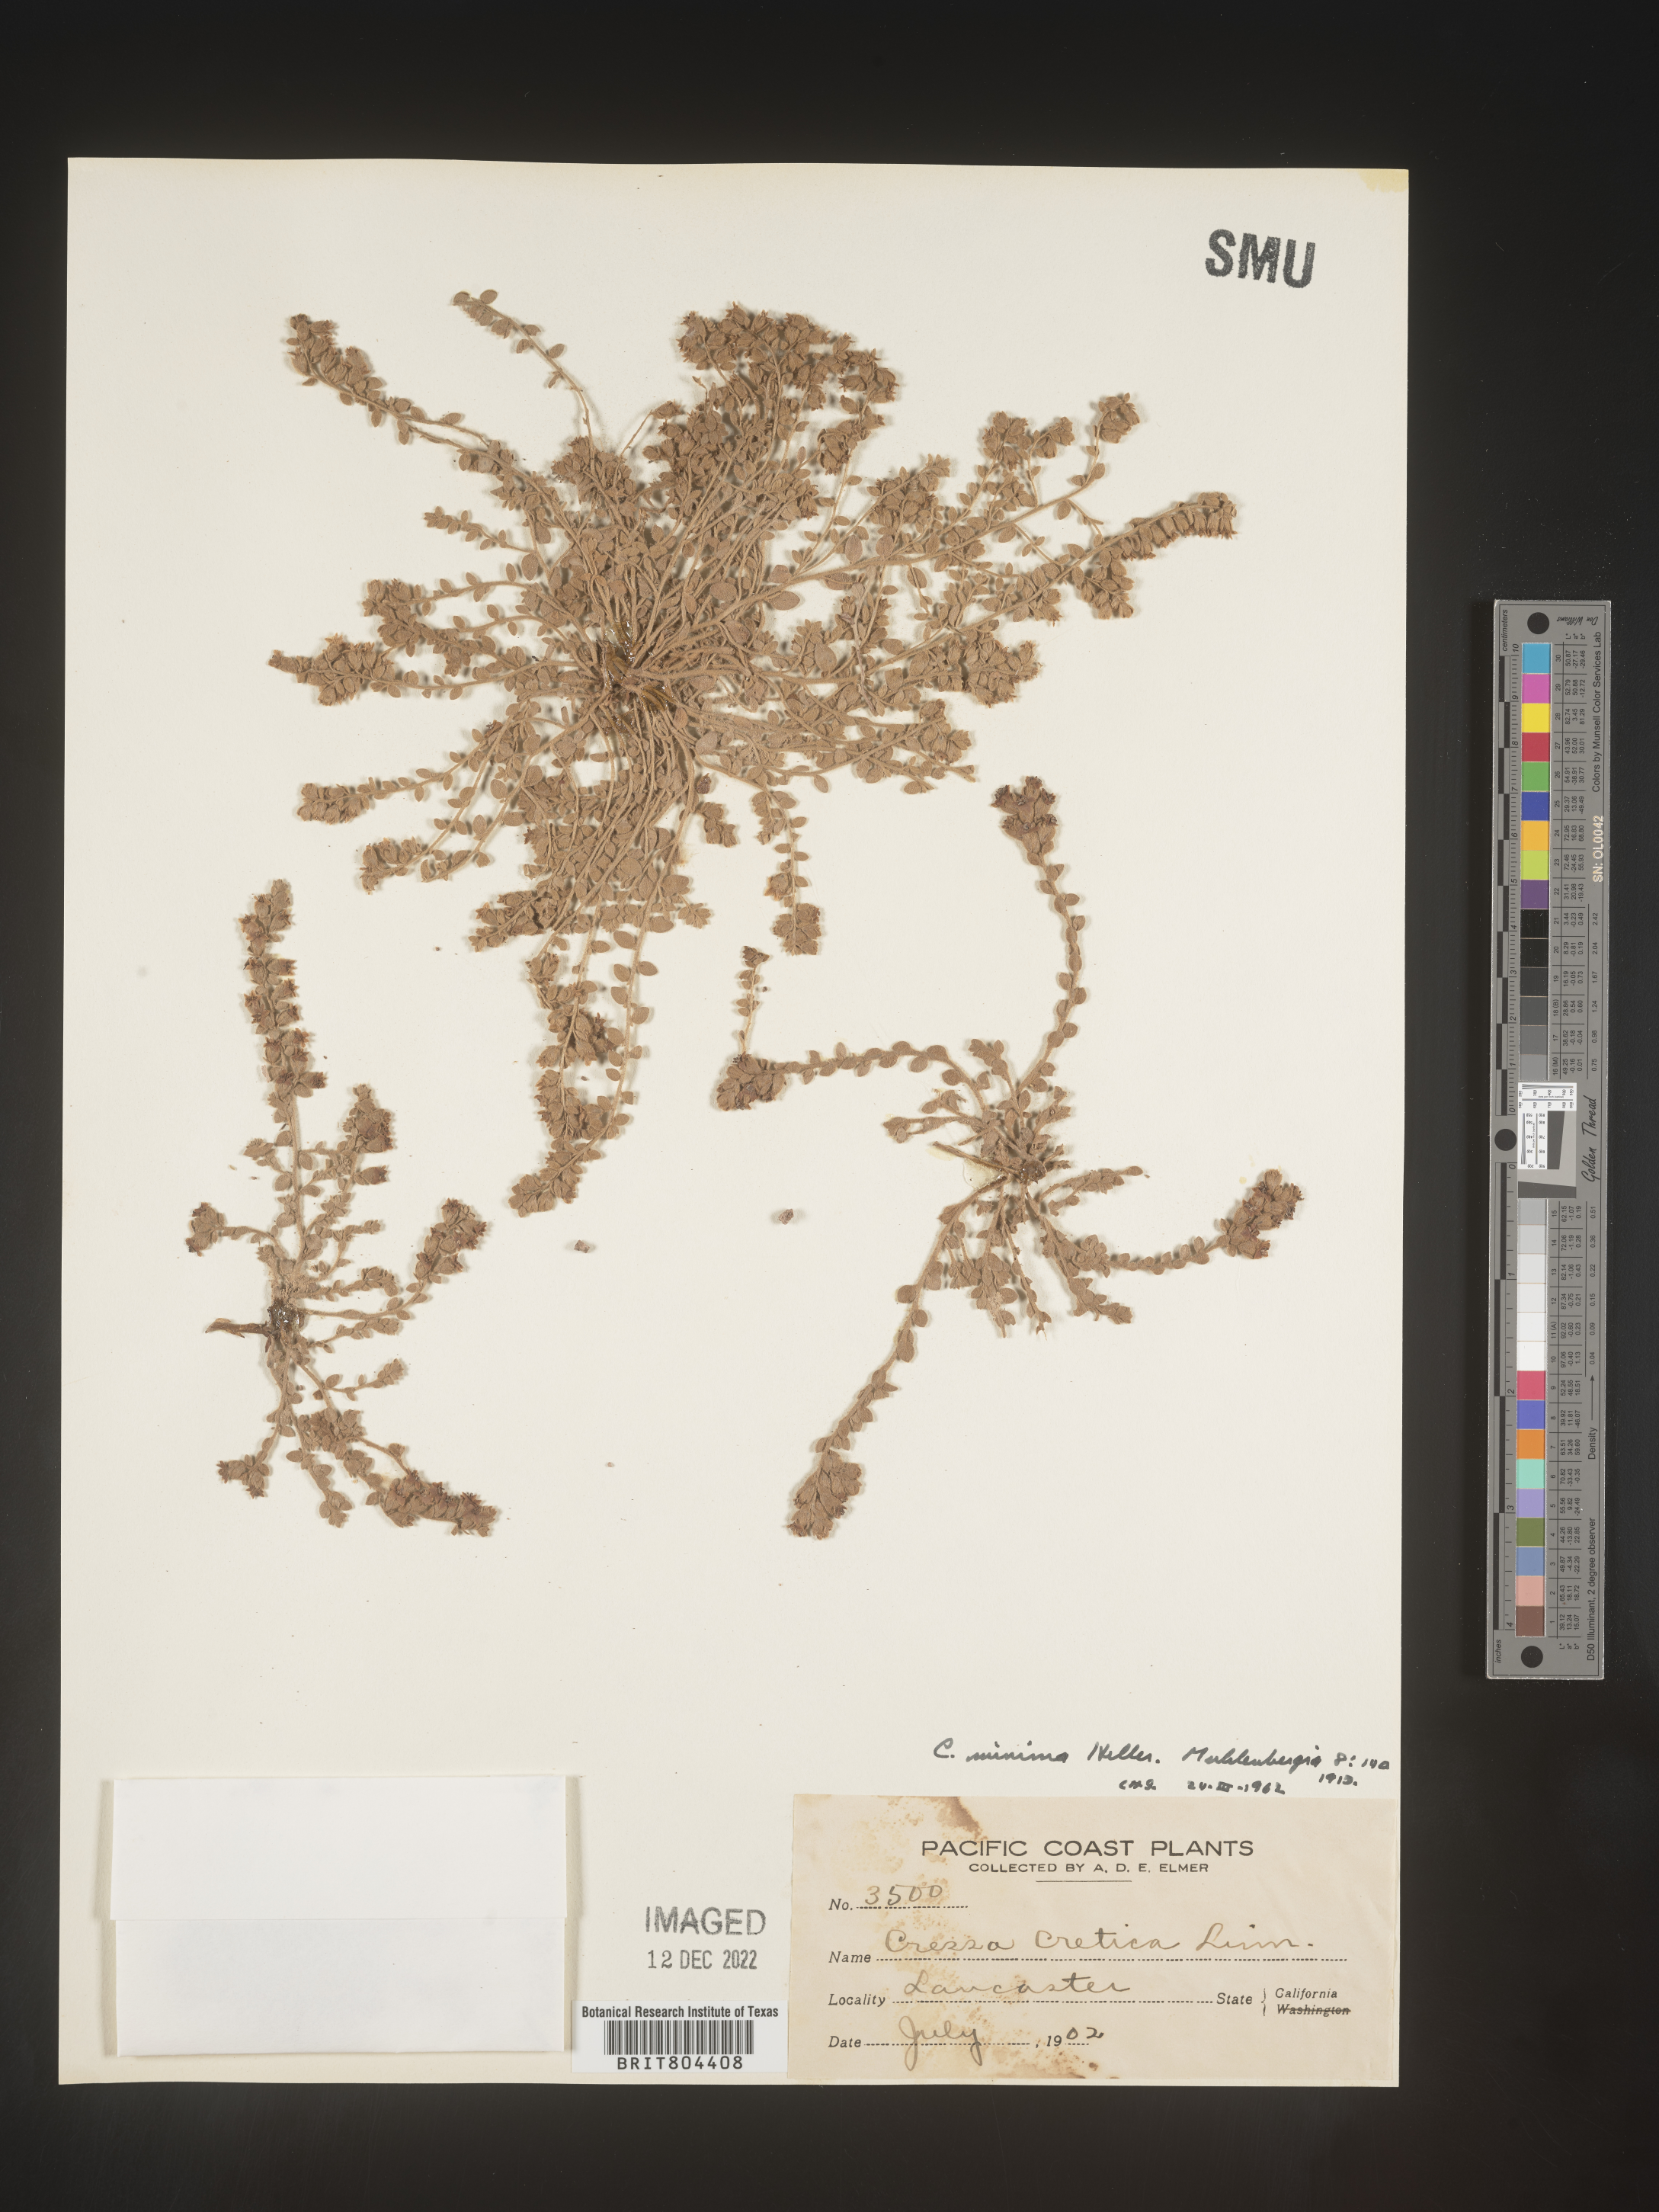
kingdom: Plantae
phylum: Tracheophyta
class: Magnoliopsida
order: Solanales
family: Convolvulaceae
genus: Cressa
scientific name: Cressa
